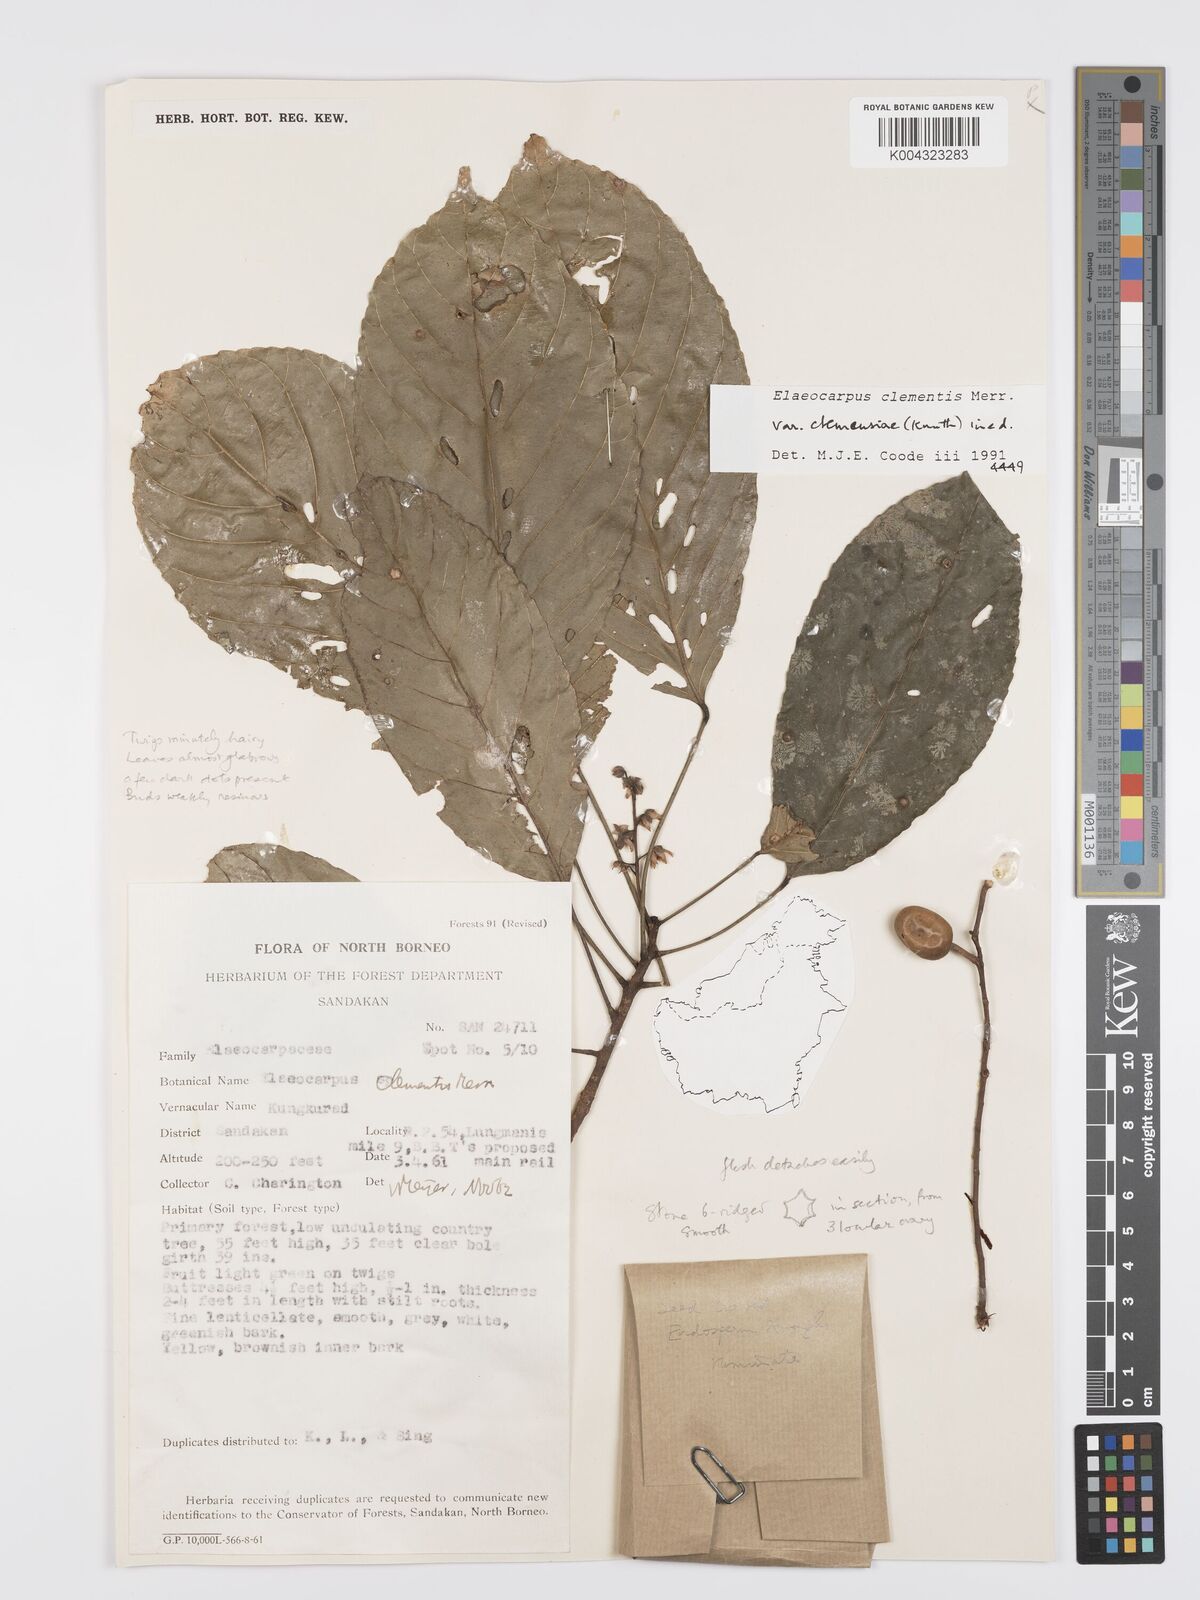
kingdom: Plantae
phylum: Tracheophyta
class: Magnoliopsida
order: Oxalidales
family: Elaeocarpaceae
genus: Elaeocarpus
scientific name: Elaeocarpus clementis
